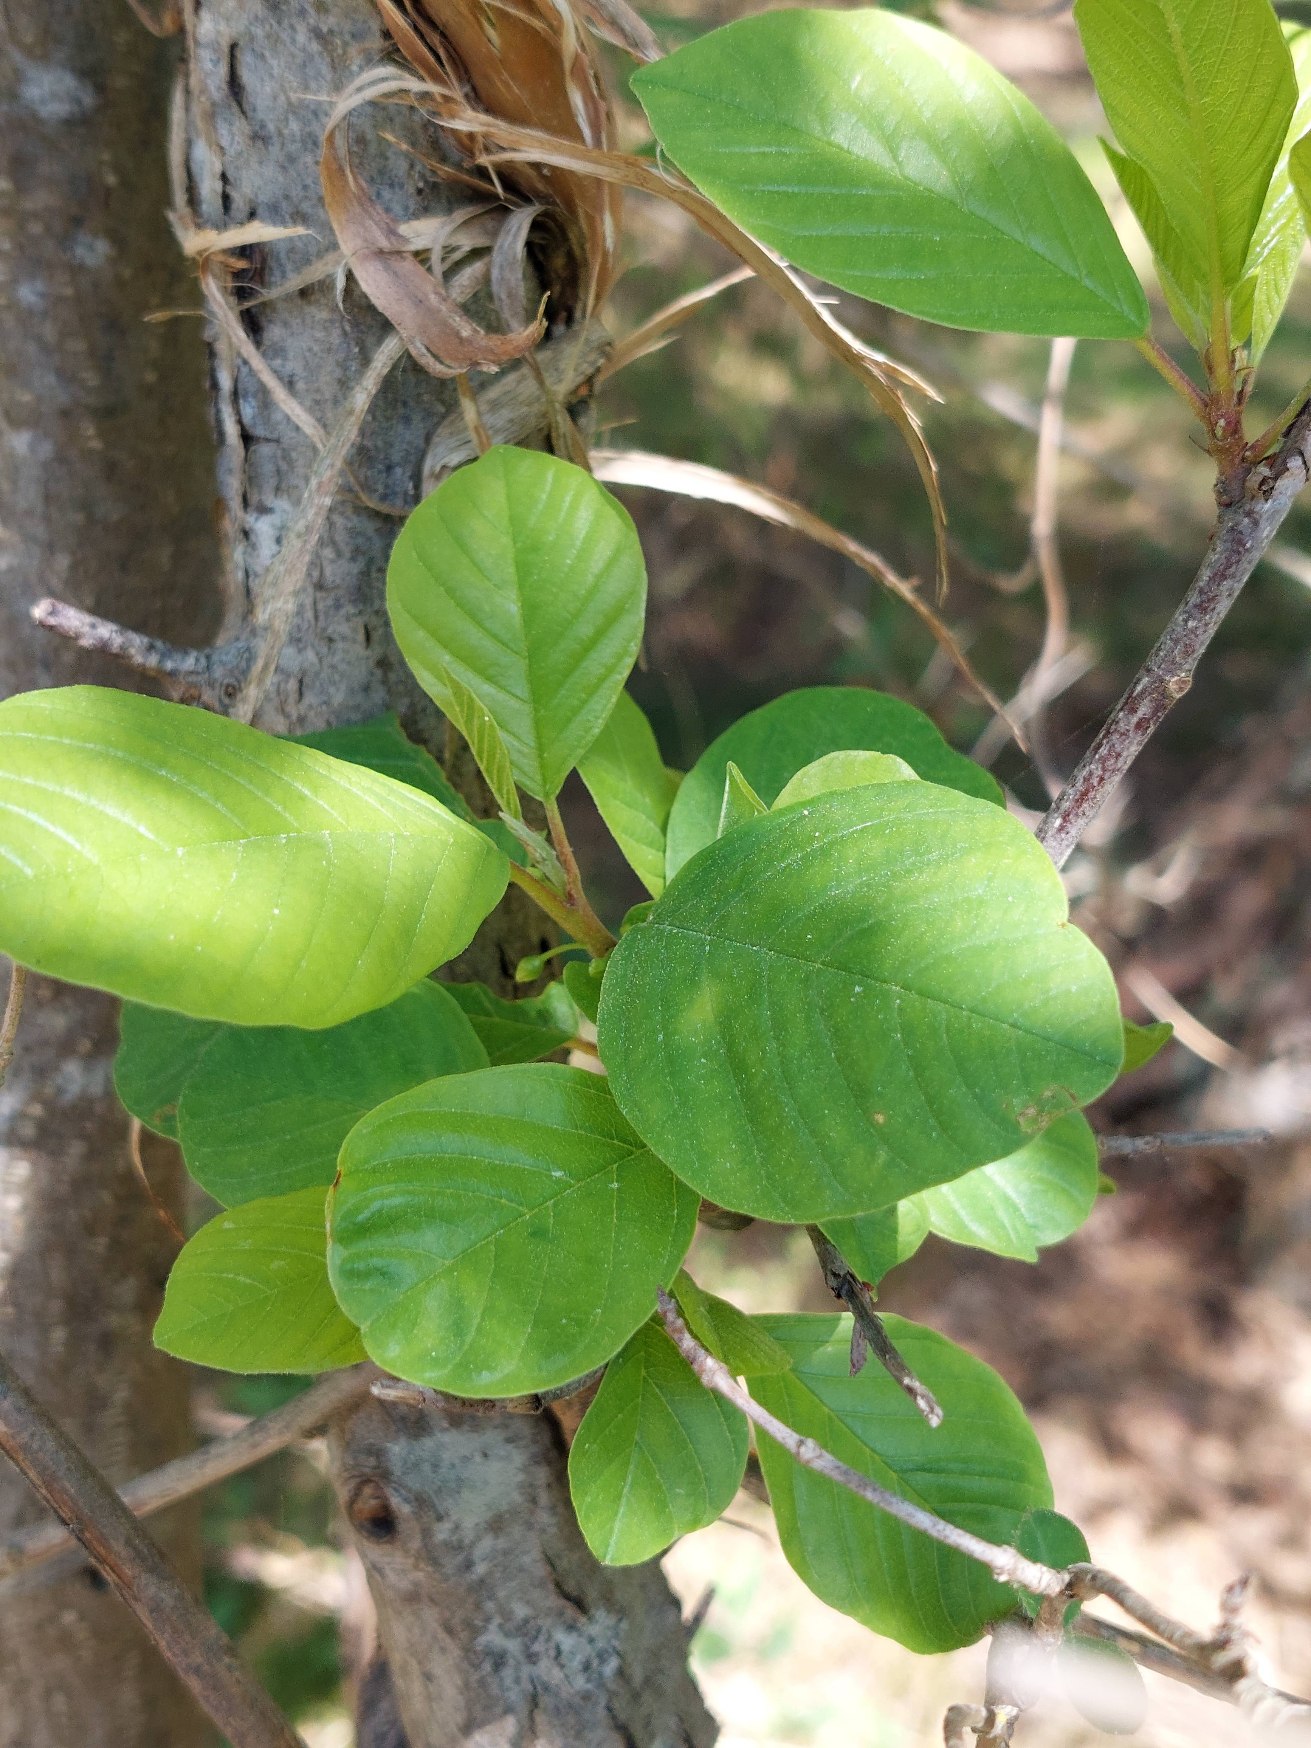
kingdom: Plantae
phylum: Tracheophyta
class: Magnoliopsida
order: Rosales
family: Rhamnaceae
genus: Frangula
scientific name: Frangula alnus
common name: Tørst
